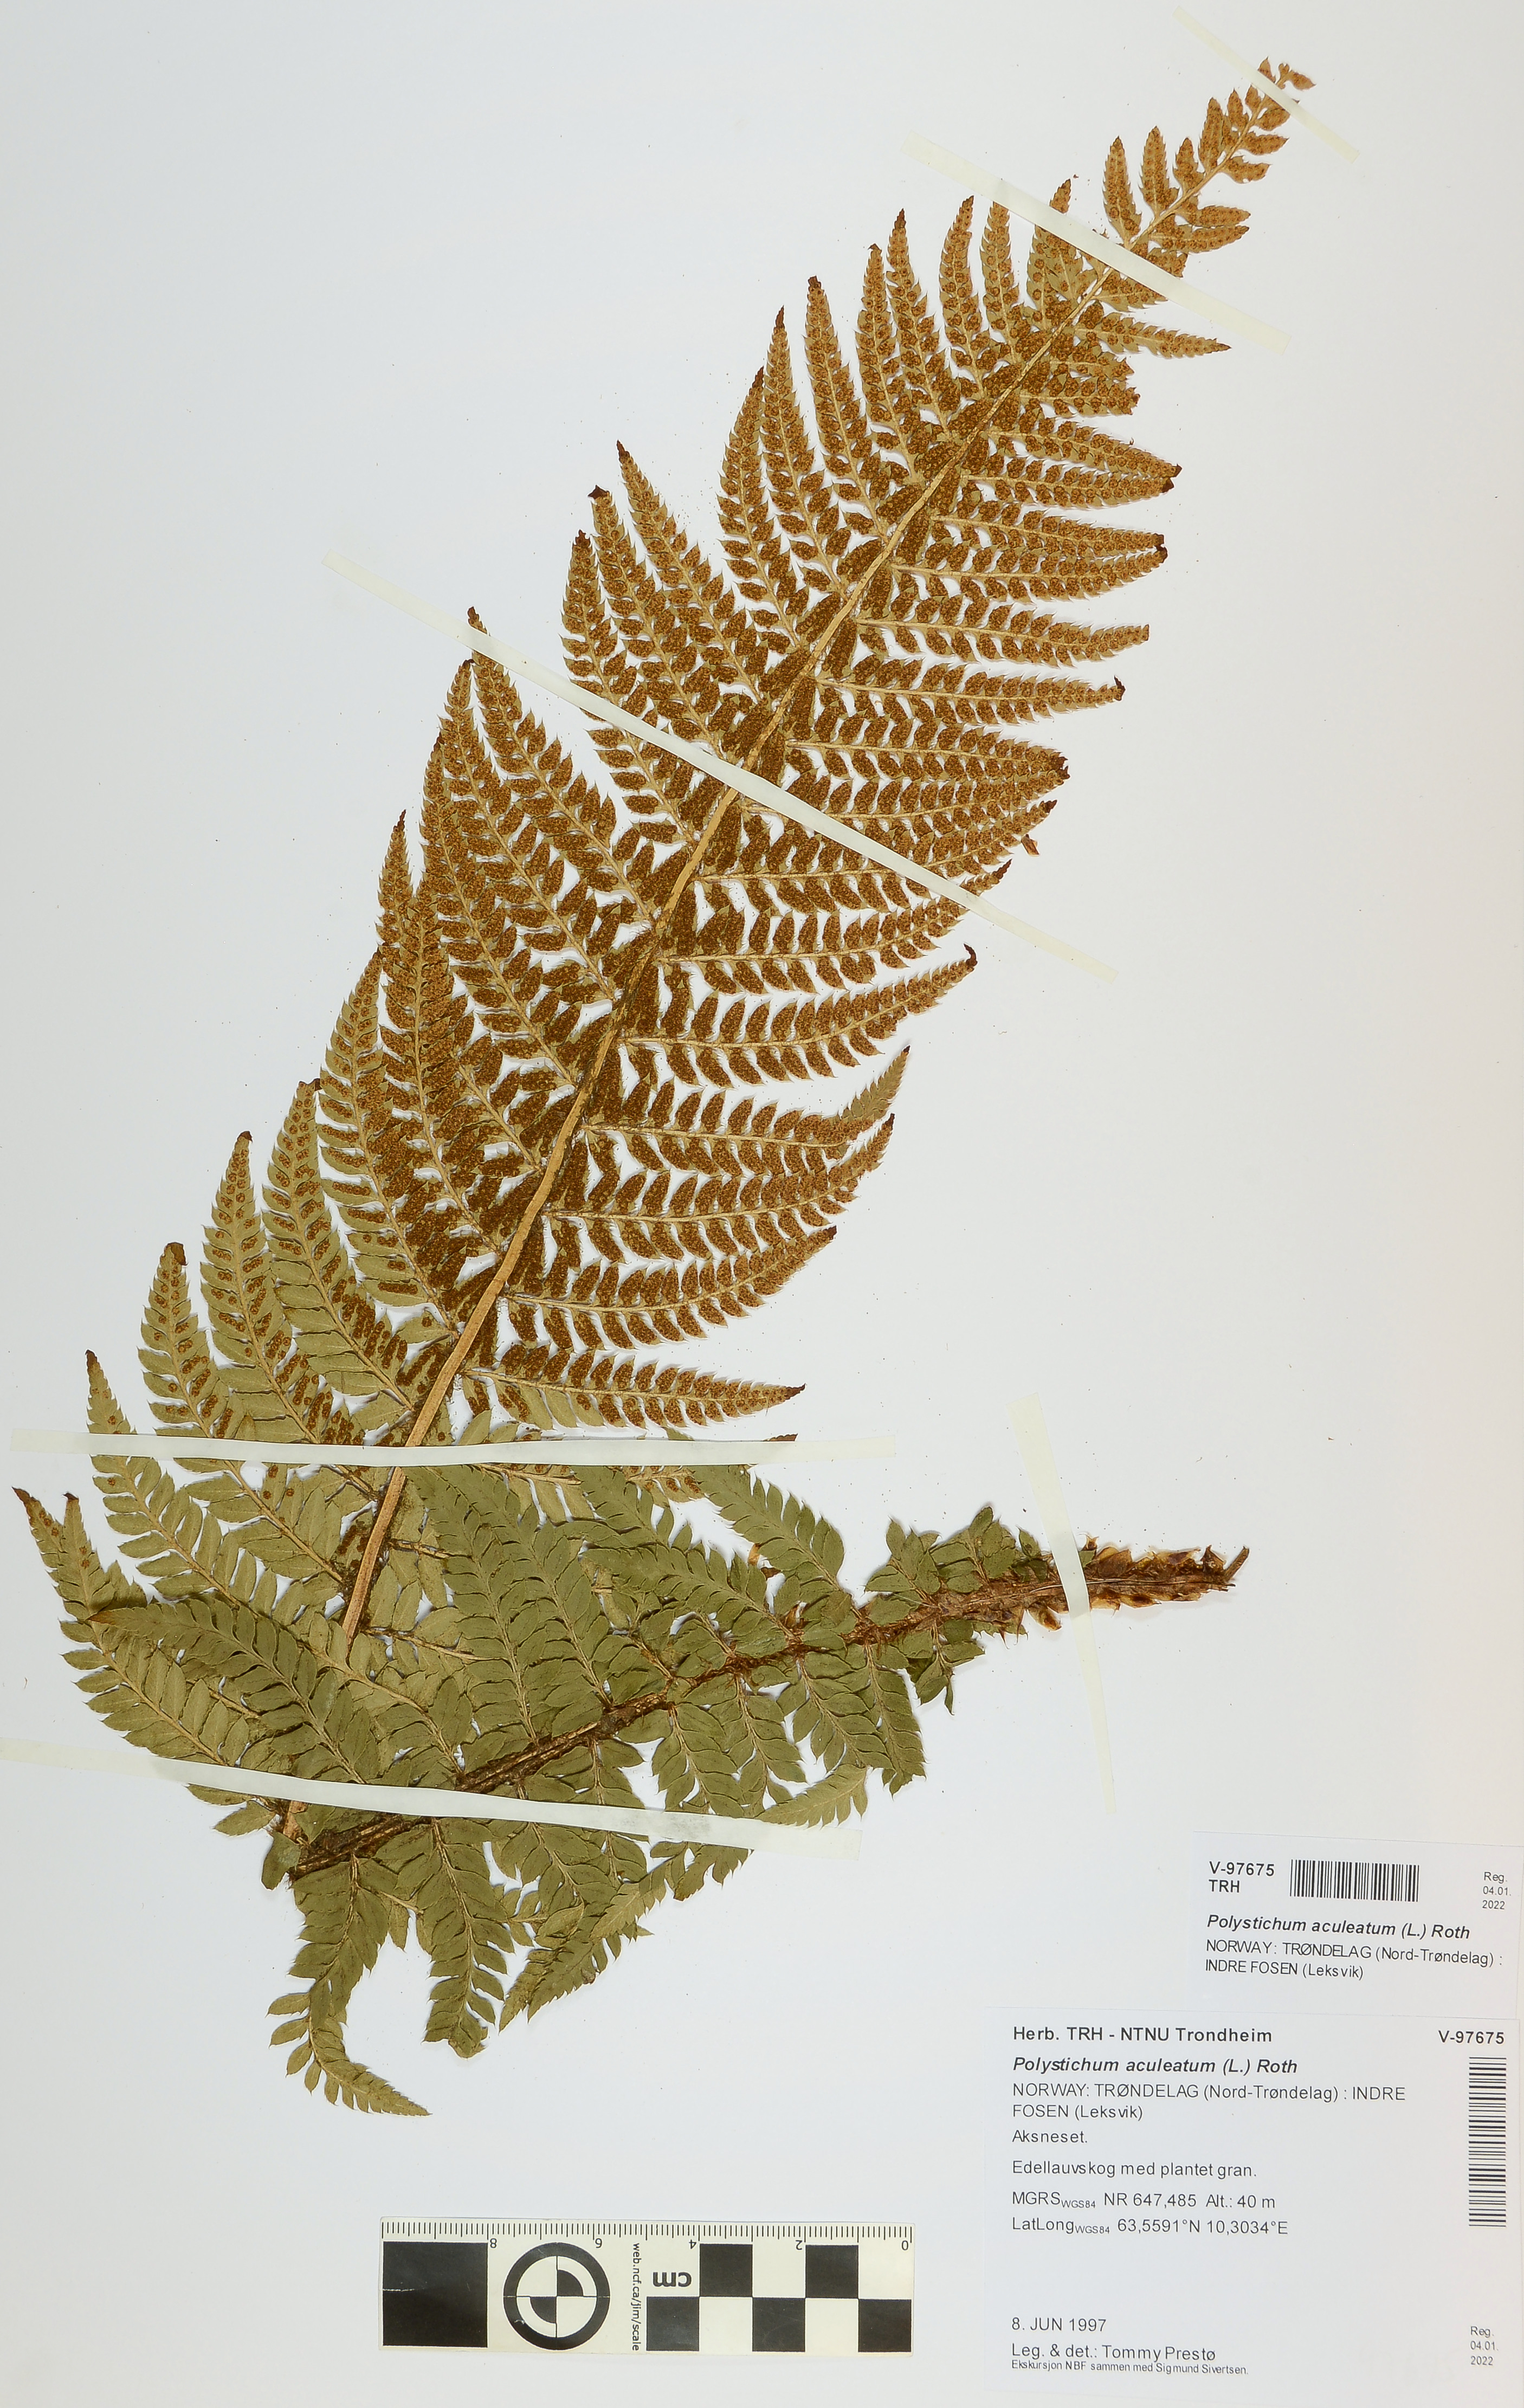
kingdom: Plantae
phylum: Tracheophyta
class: Polypodiopsida
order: Polypodiales
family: Dryopteridaceae
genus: Polystichum
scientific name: Polystichum aculeatum
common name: Hard shield-fern
